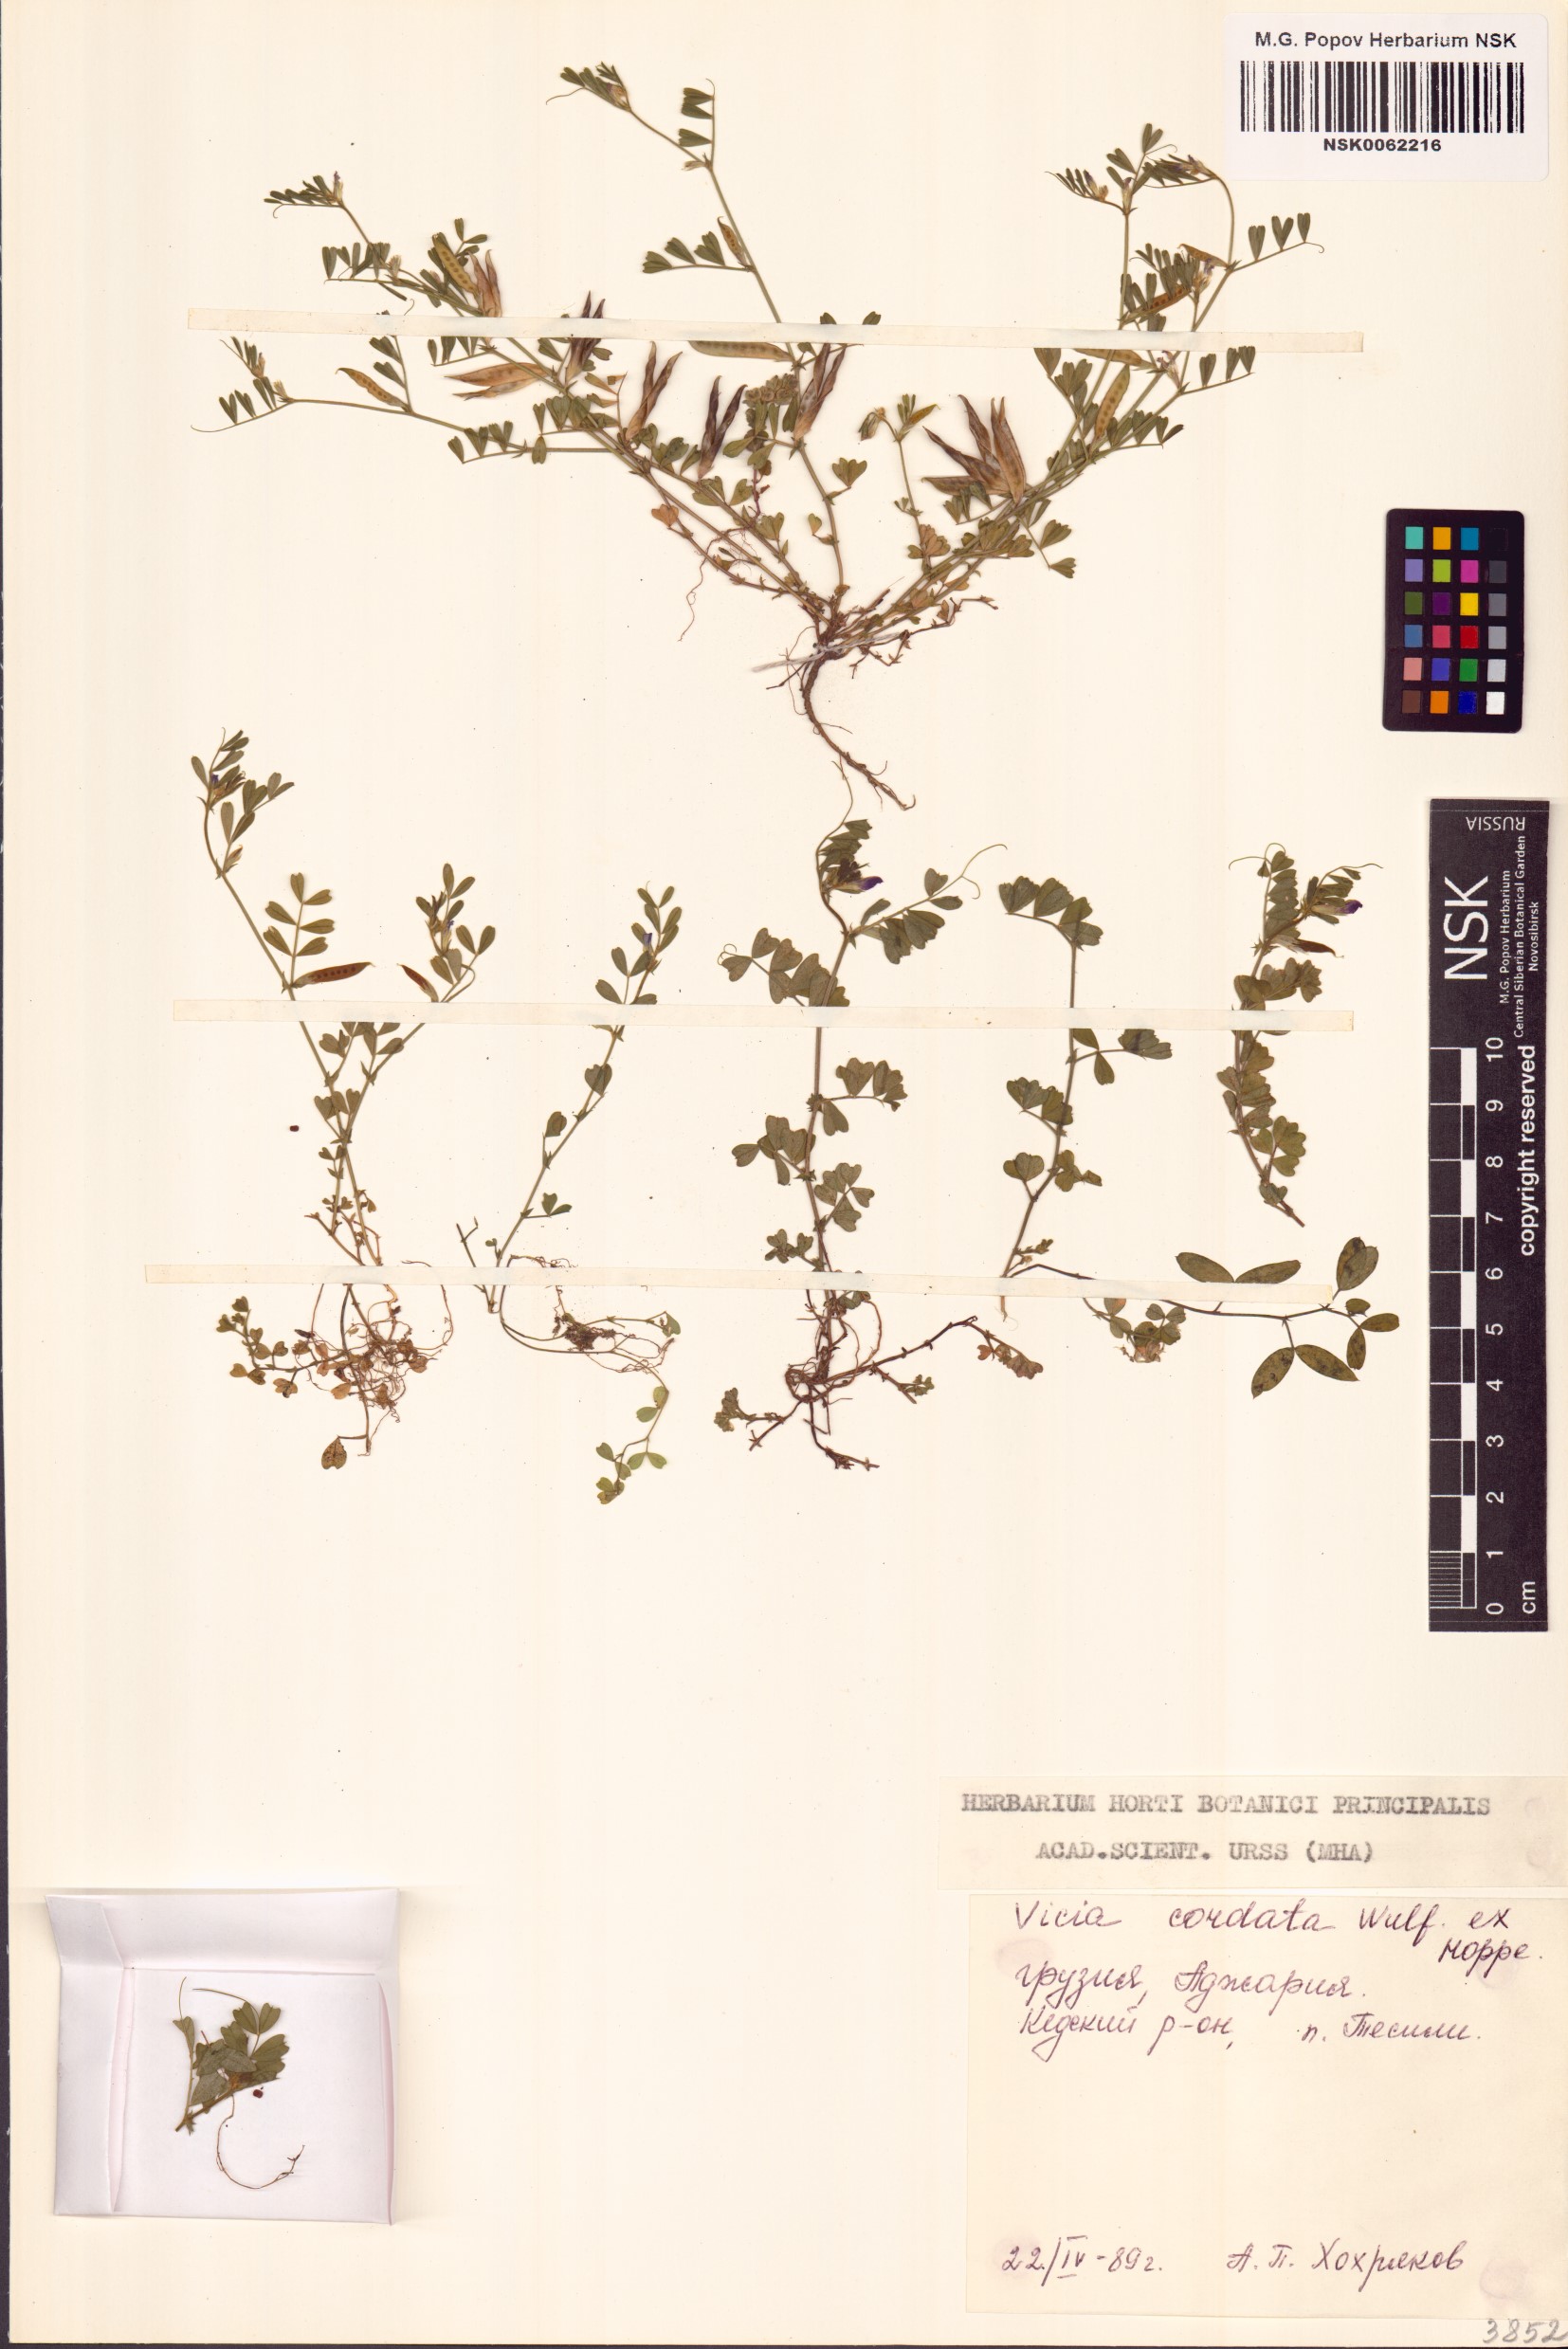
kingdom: Plantae
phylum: Tracheophyta
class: Magnoliopsida
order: Fabales
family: Fabaceae
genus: Vicia
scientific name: Vicia sativa
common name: Garden vetch
